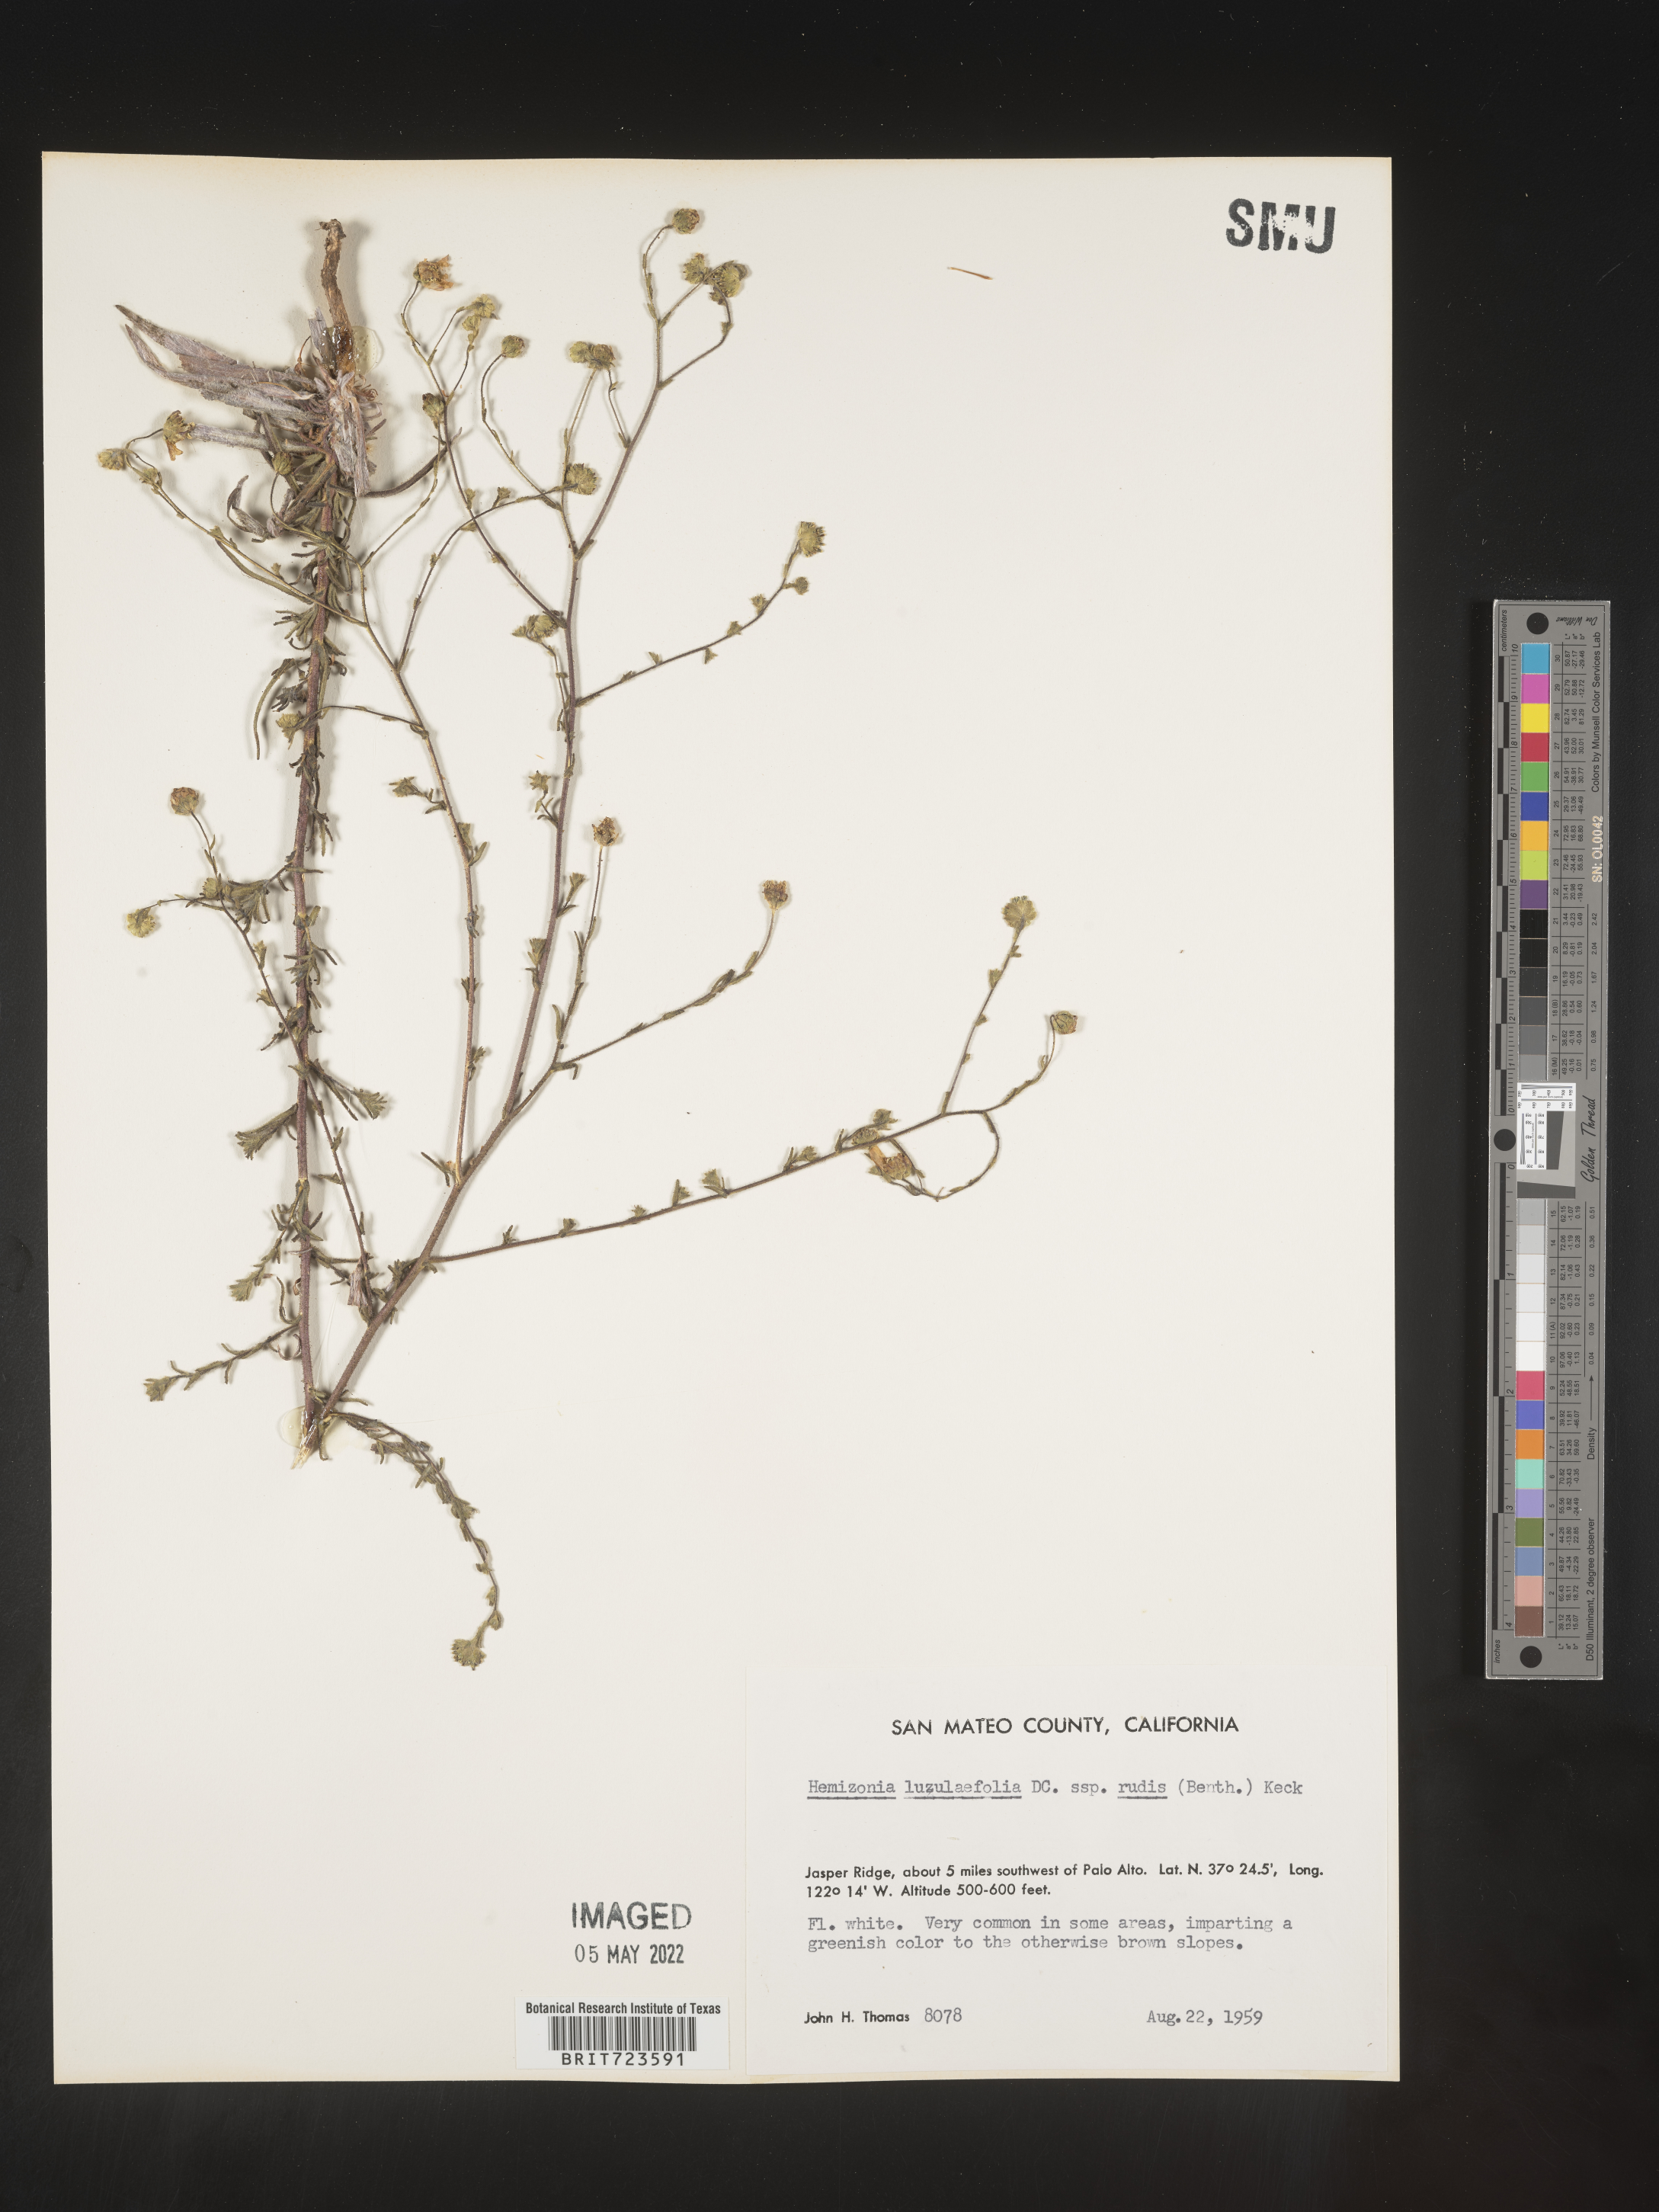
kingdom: Plantae
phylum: Tracheophyta
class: Magnoliopsida
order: Asterales
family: Asteraceae
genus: Hemizonia
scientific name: Hemizonia
